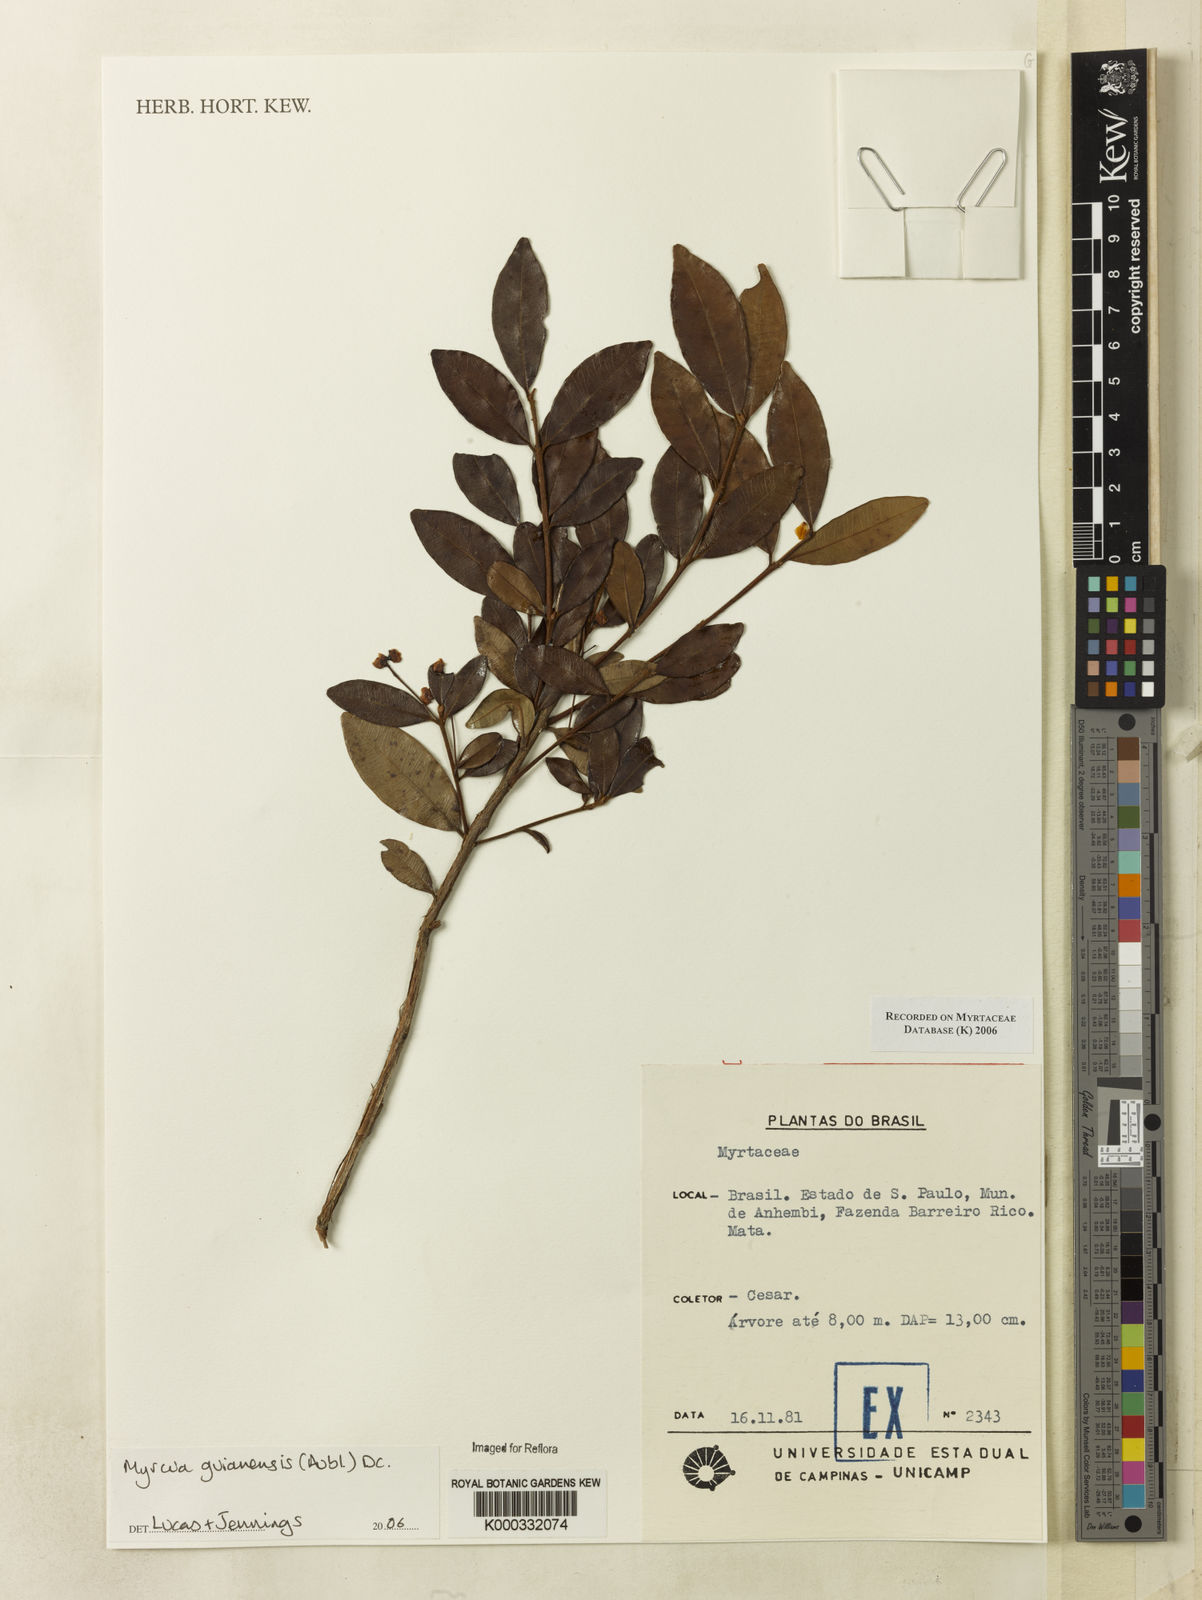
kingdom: Plantae
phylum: Tracheophyta
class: Magnoliopsida
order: Myrtales
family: Myrtaceae
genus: Myrcia
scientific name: Myrcia guianensis
